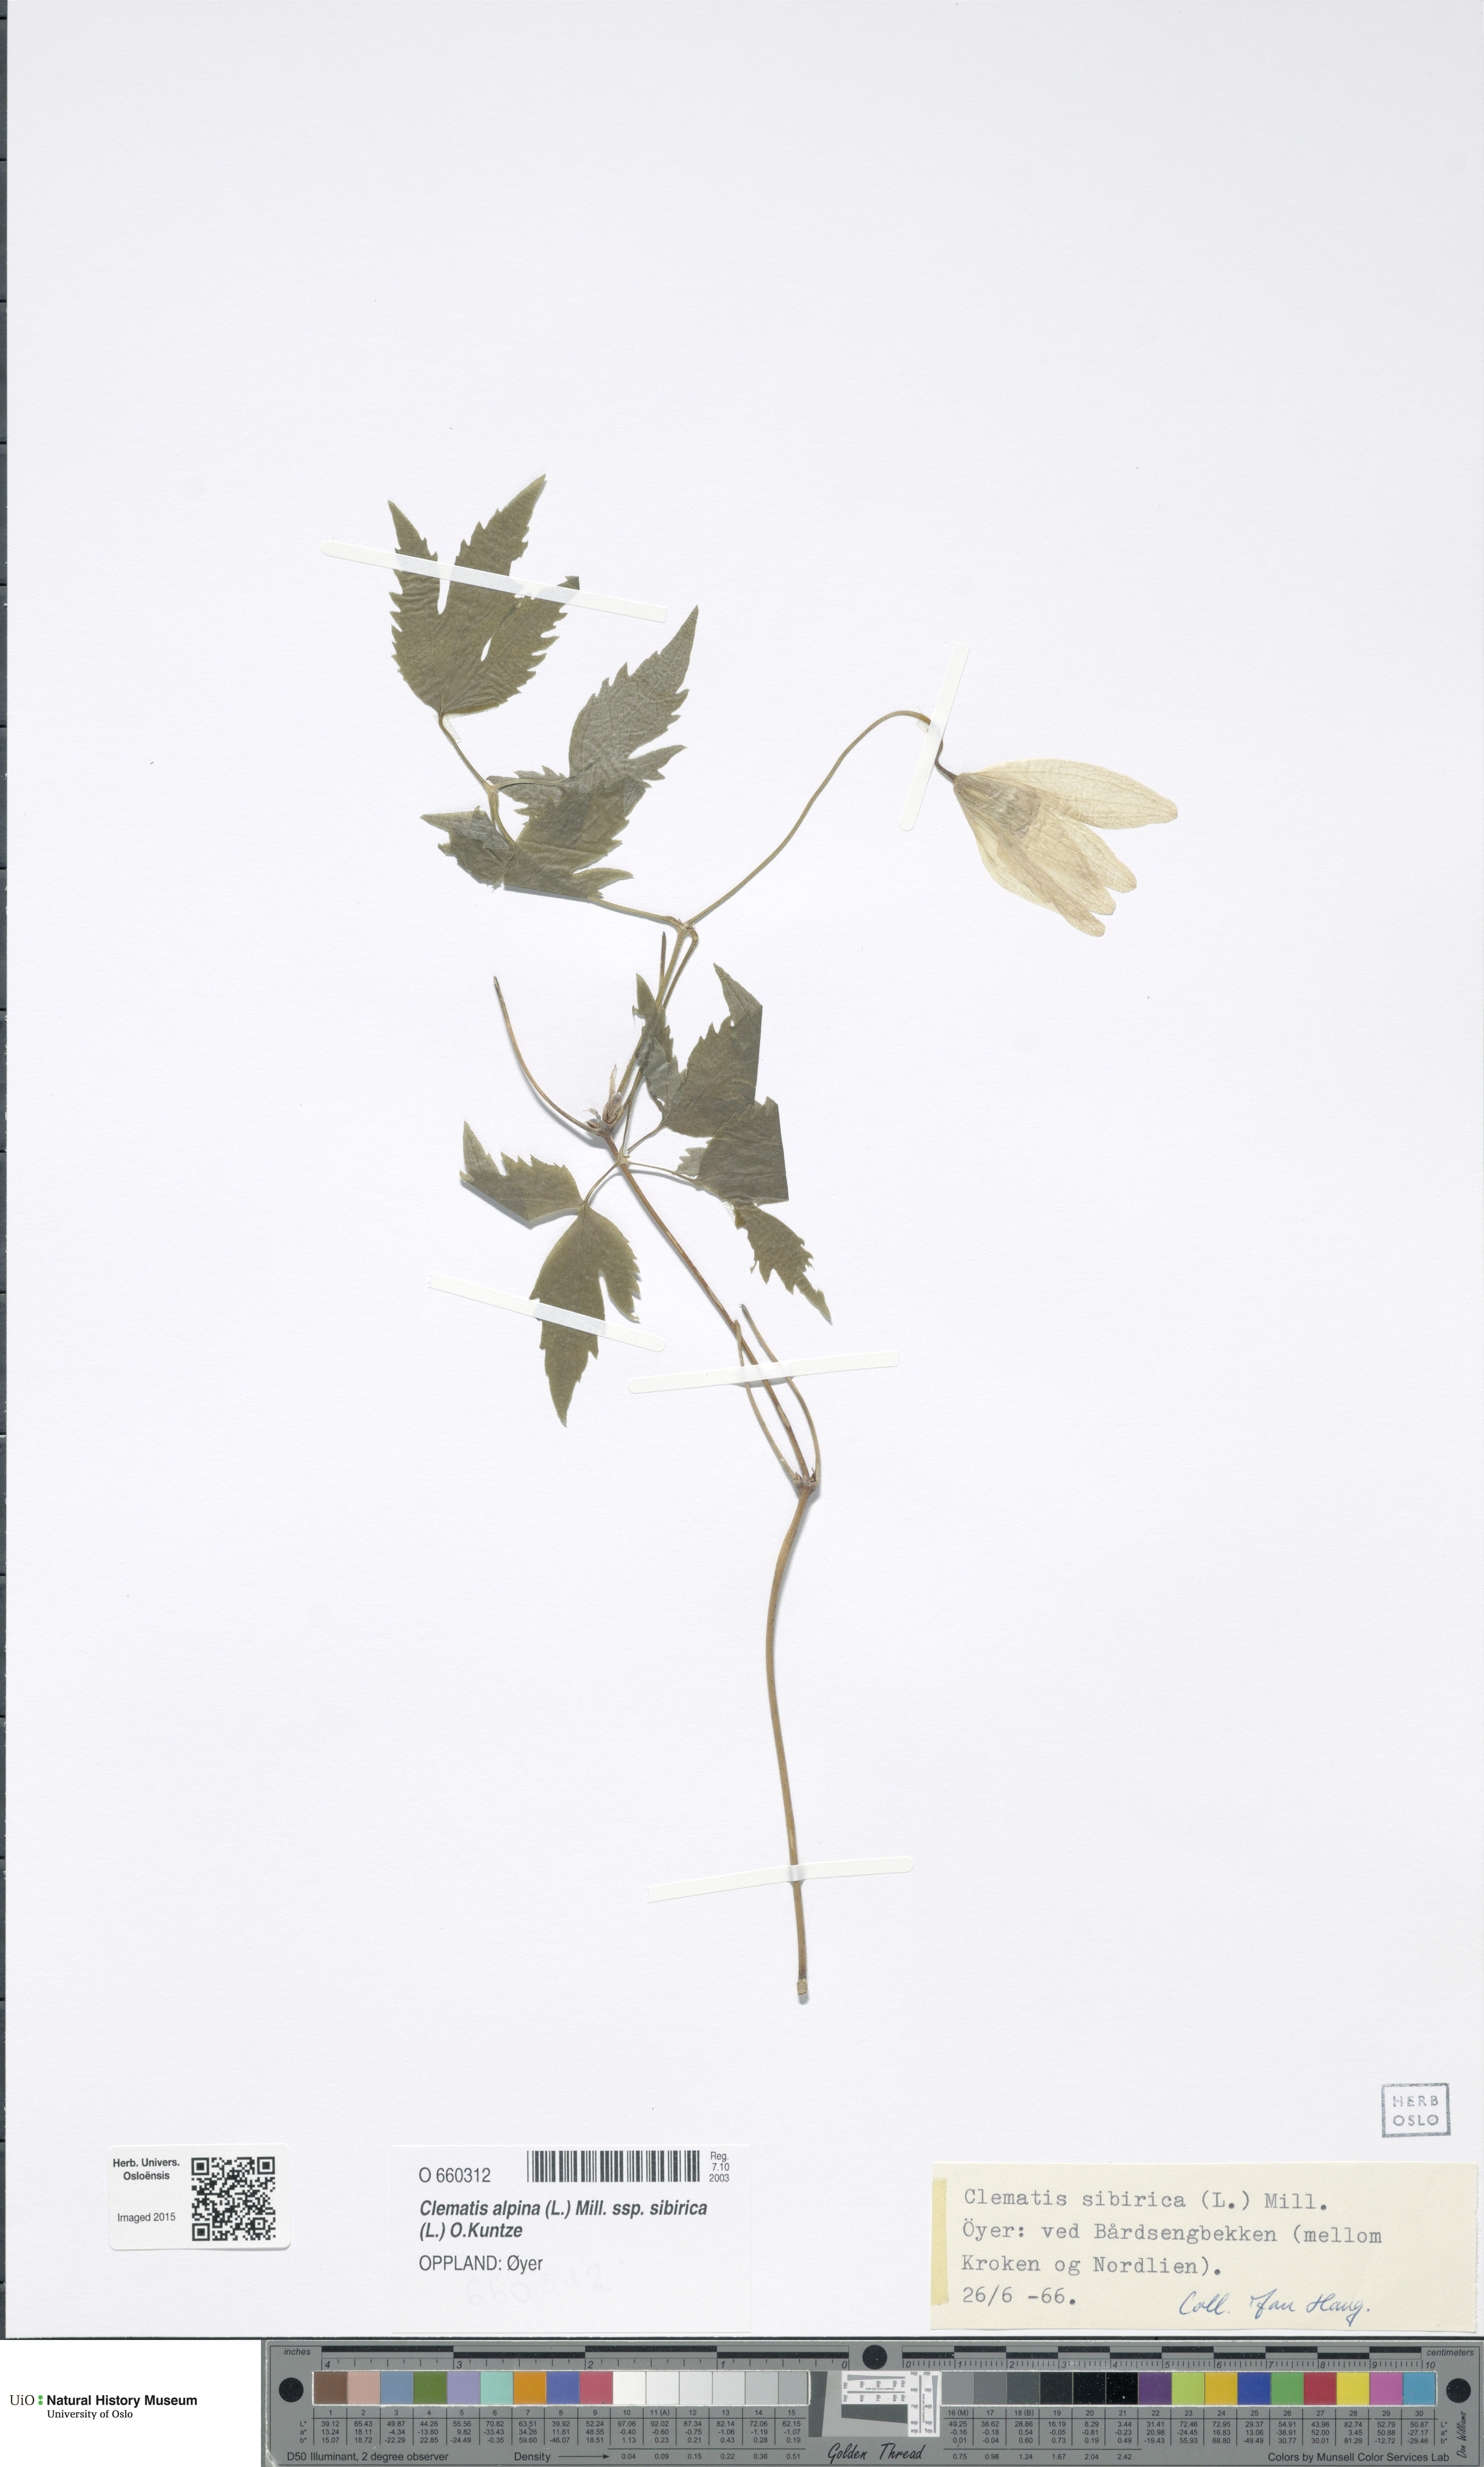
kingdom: Plantae
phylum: Tracheophyta
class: Magnoliopsida
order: Ranunculales
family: Ranunculaceae
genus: Clematis
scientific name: Clematis sibirica
